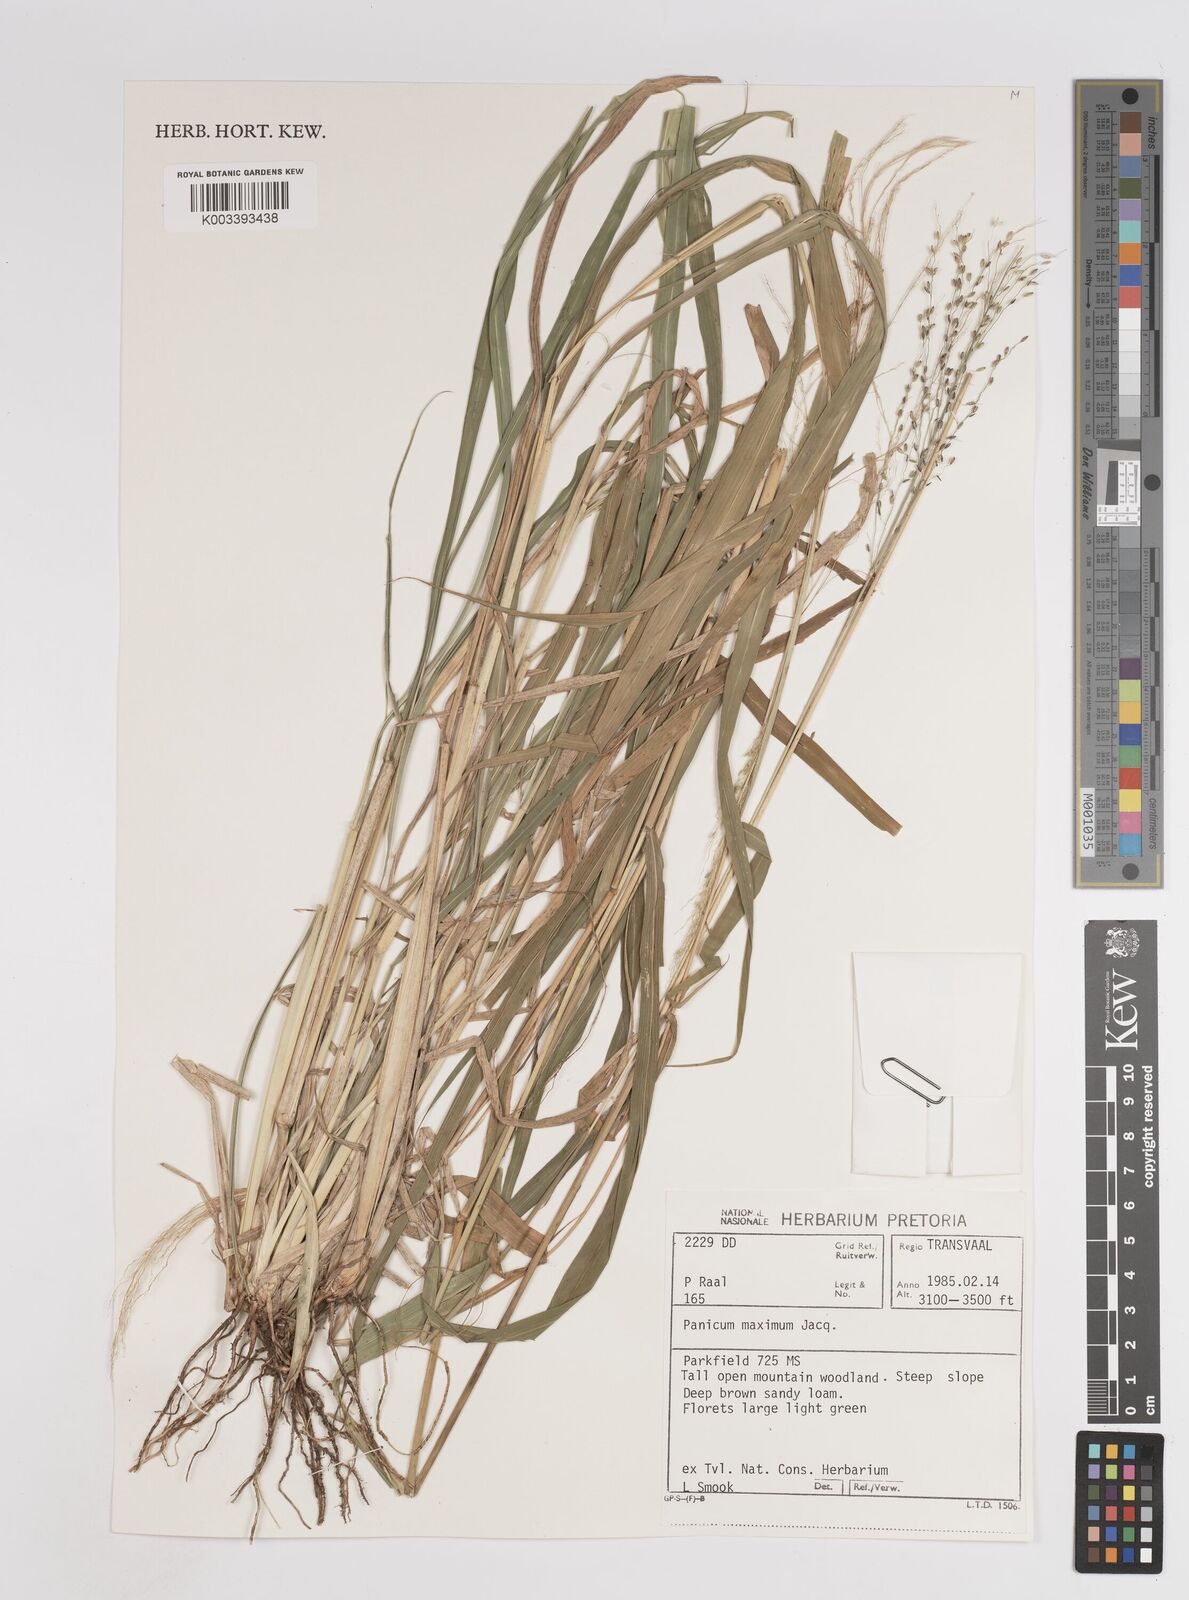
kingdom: Plantae
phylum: Tracheophyta
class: Liliopsida
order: Poales
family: Poaceae
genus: Megathyrsus
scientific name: Megathyrsus maximus
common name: Guineagrass
